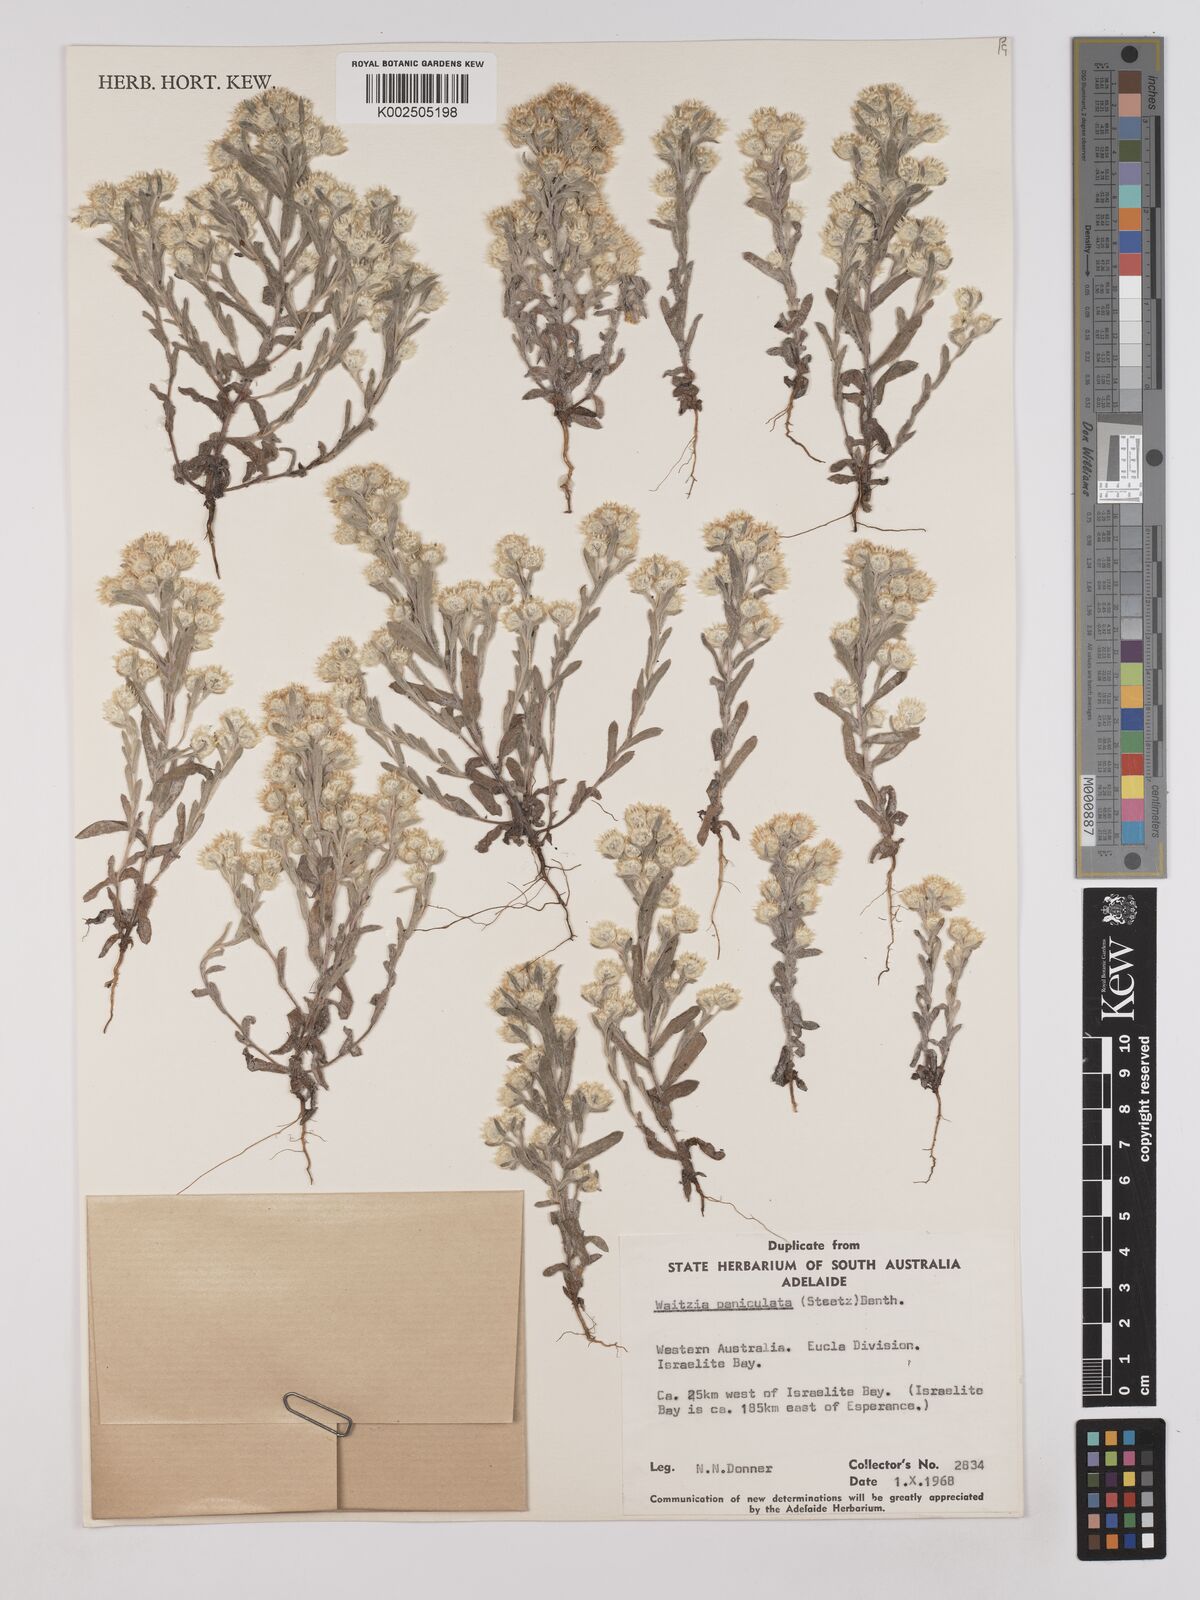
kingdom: Plantae
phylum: Tracheophyta
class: Magnoliopsida
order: Asterales
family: Asteraceae
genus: Pterochaeta
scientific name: Pterochaeta paniculata
